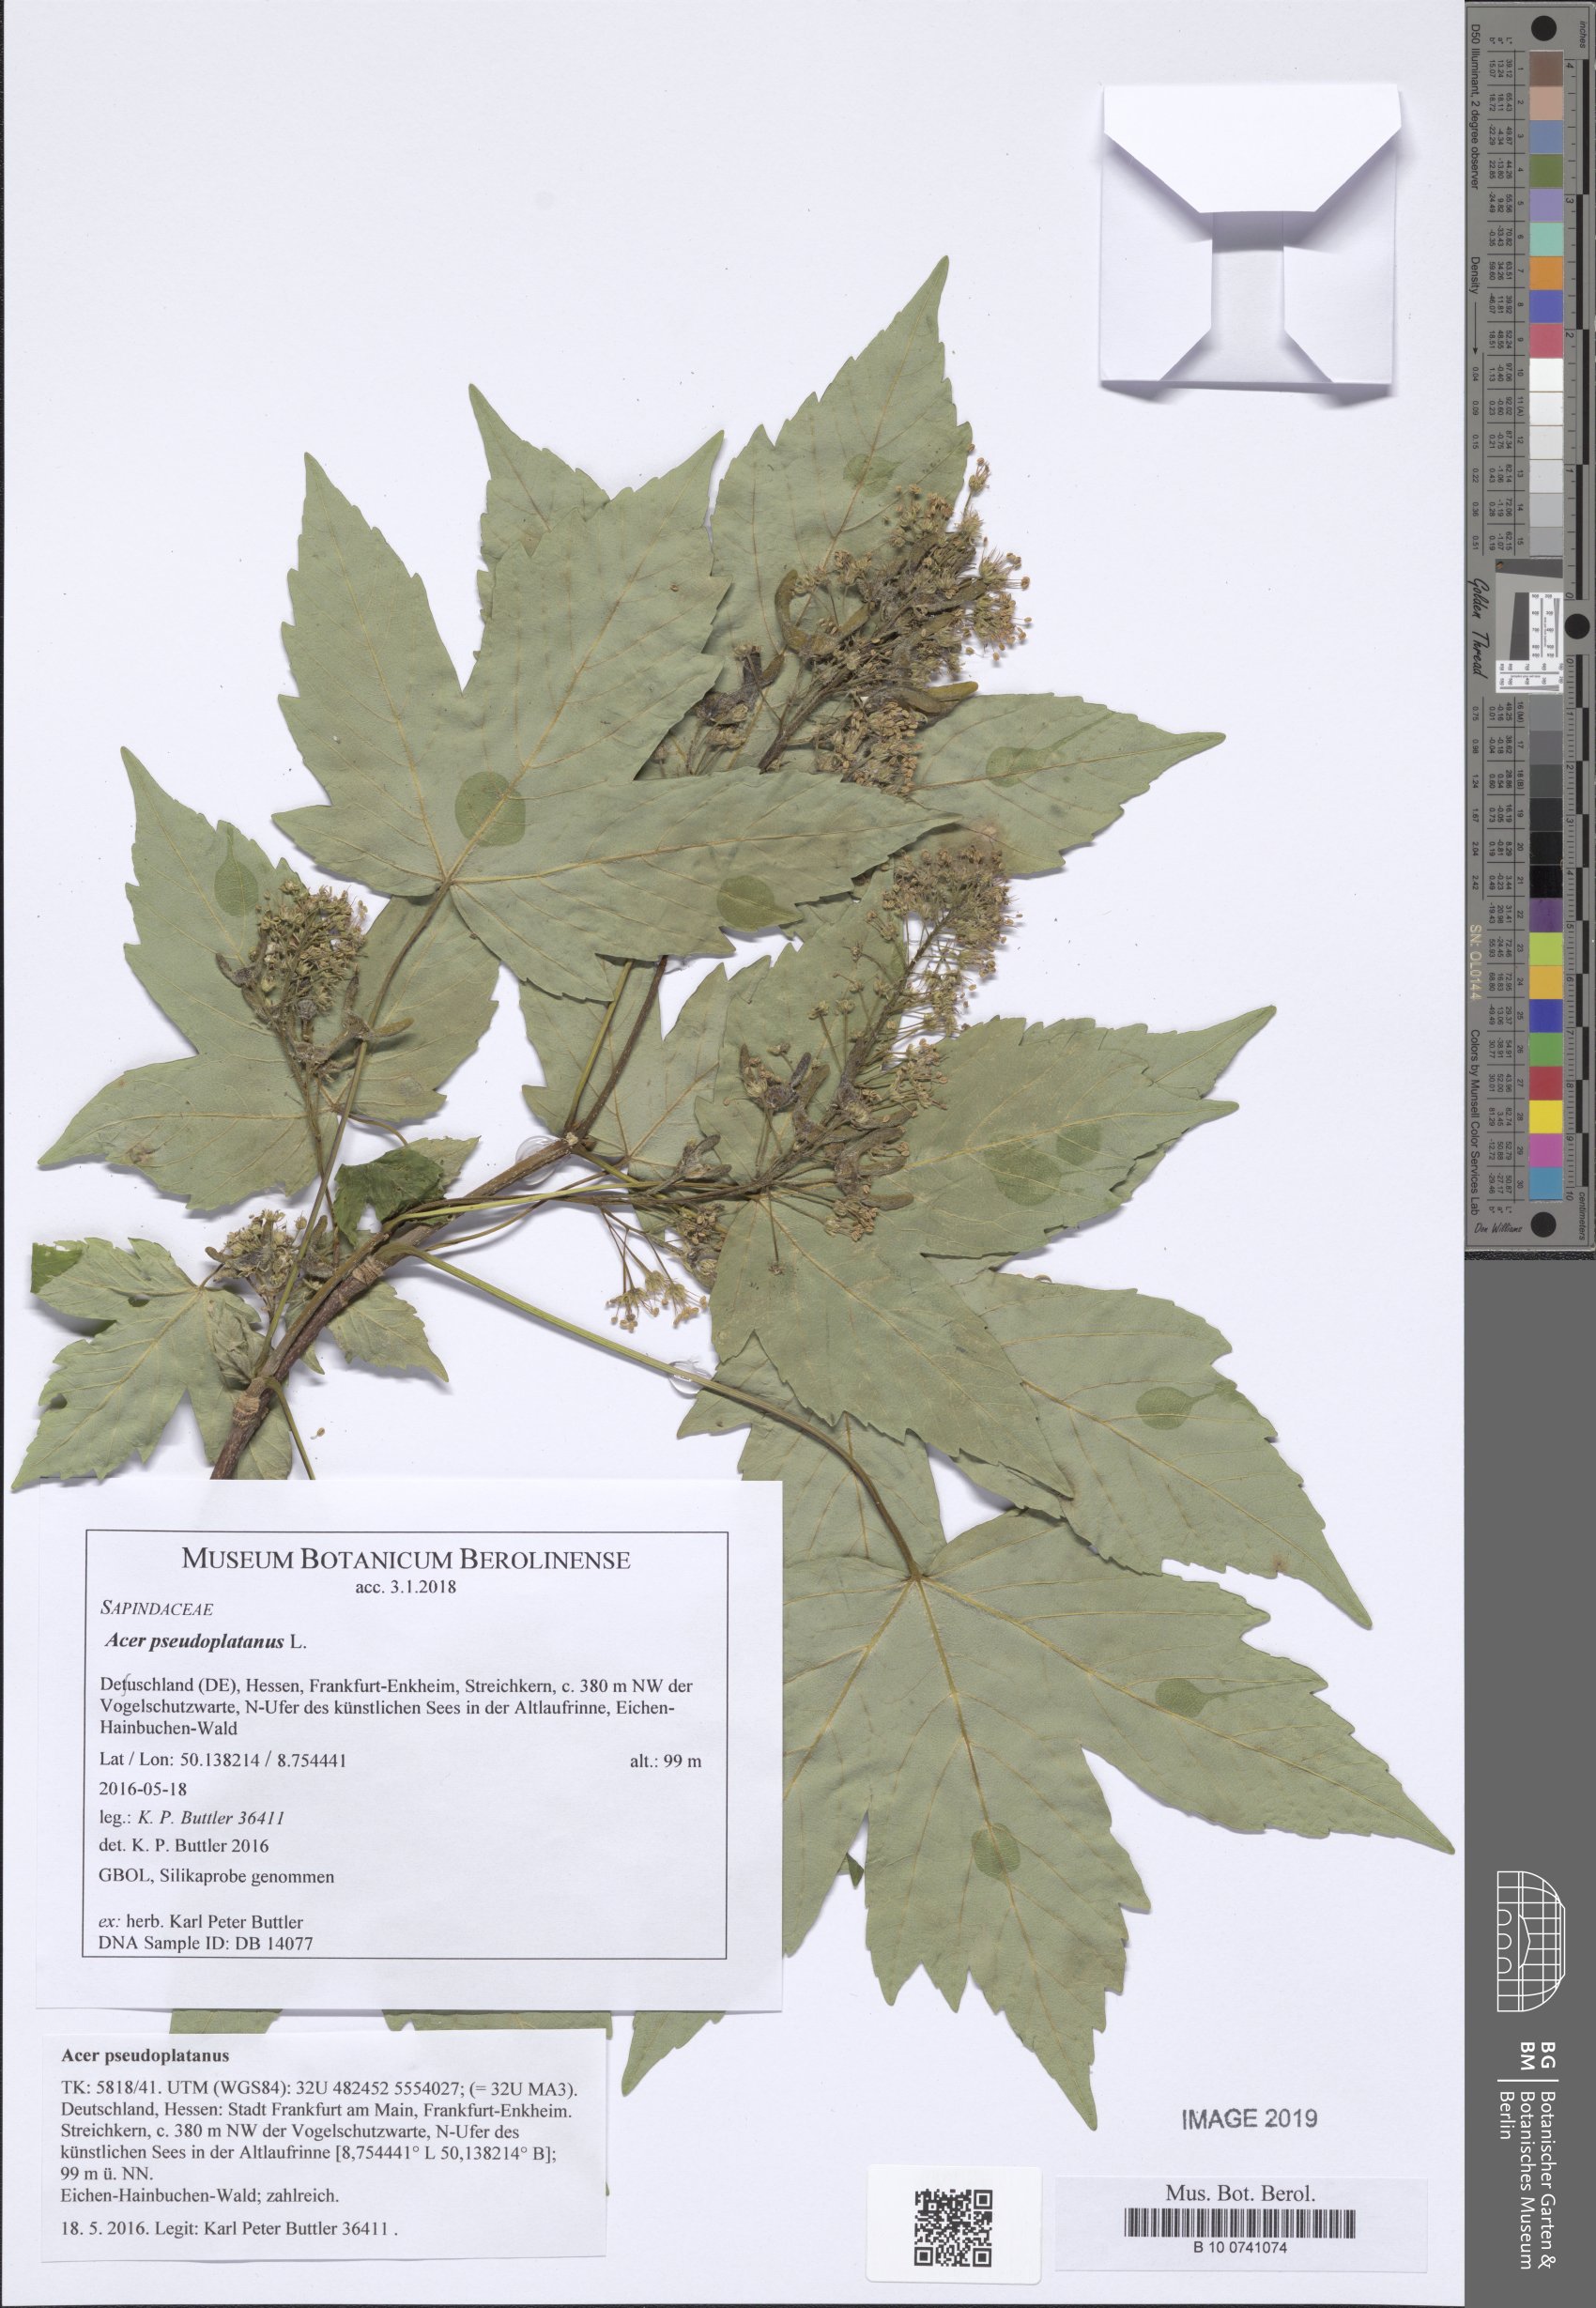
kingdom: Plantae
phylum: Tracheophyta
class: Magnoliopsida
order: Sapindales
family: Sapindaceae
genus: Acer
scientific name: Acer pseudoplatanus
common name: Sycamore
